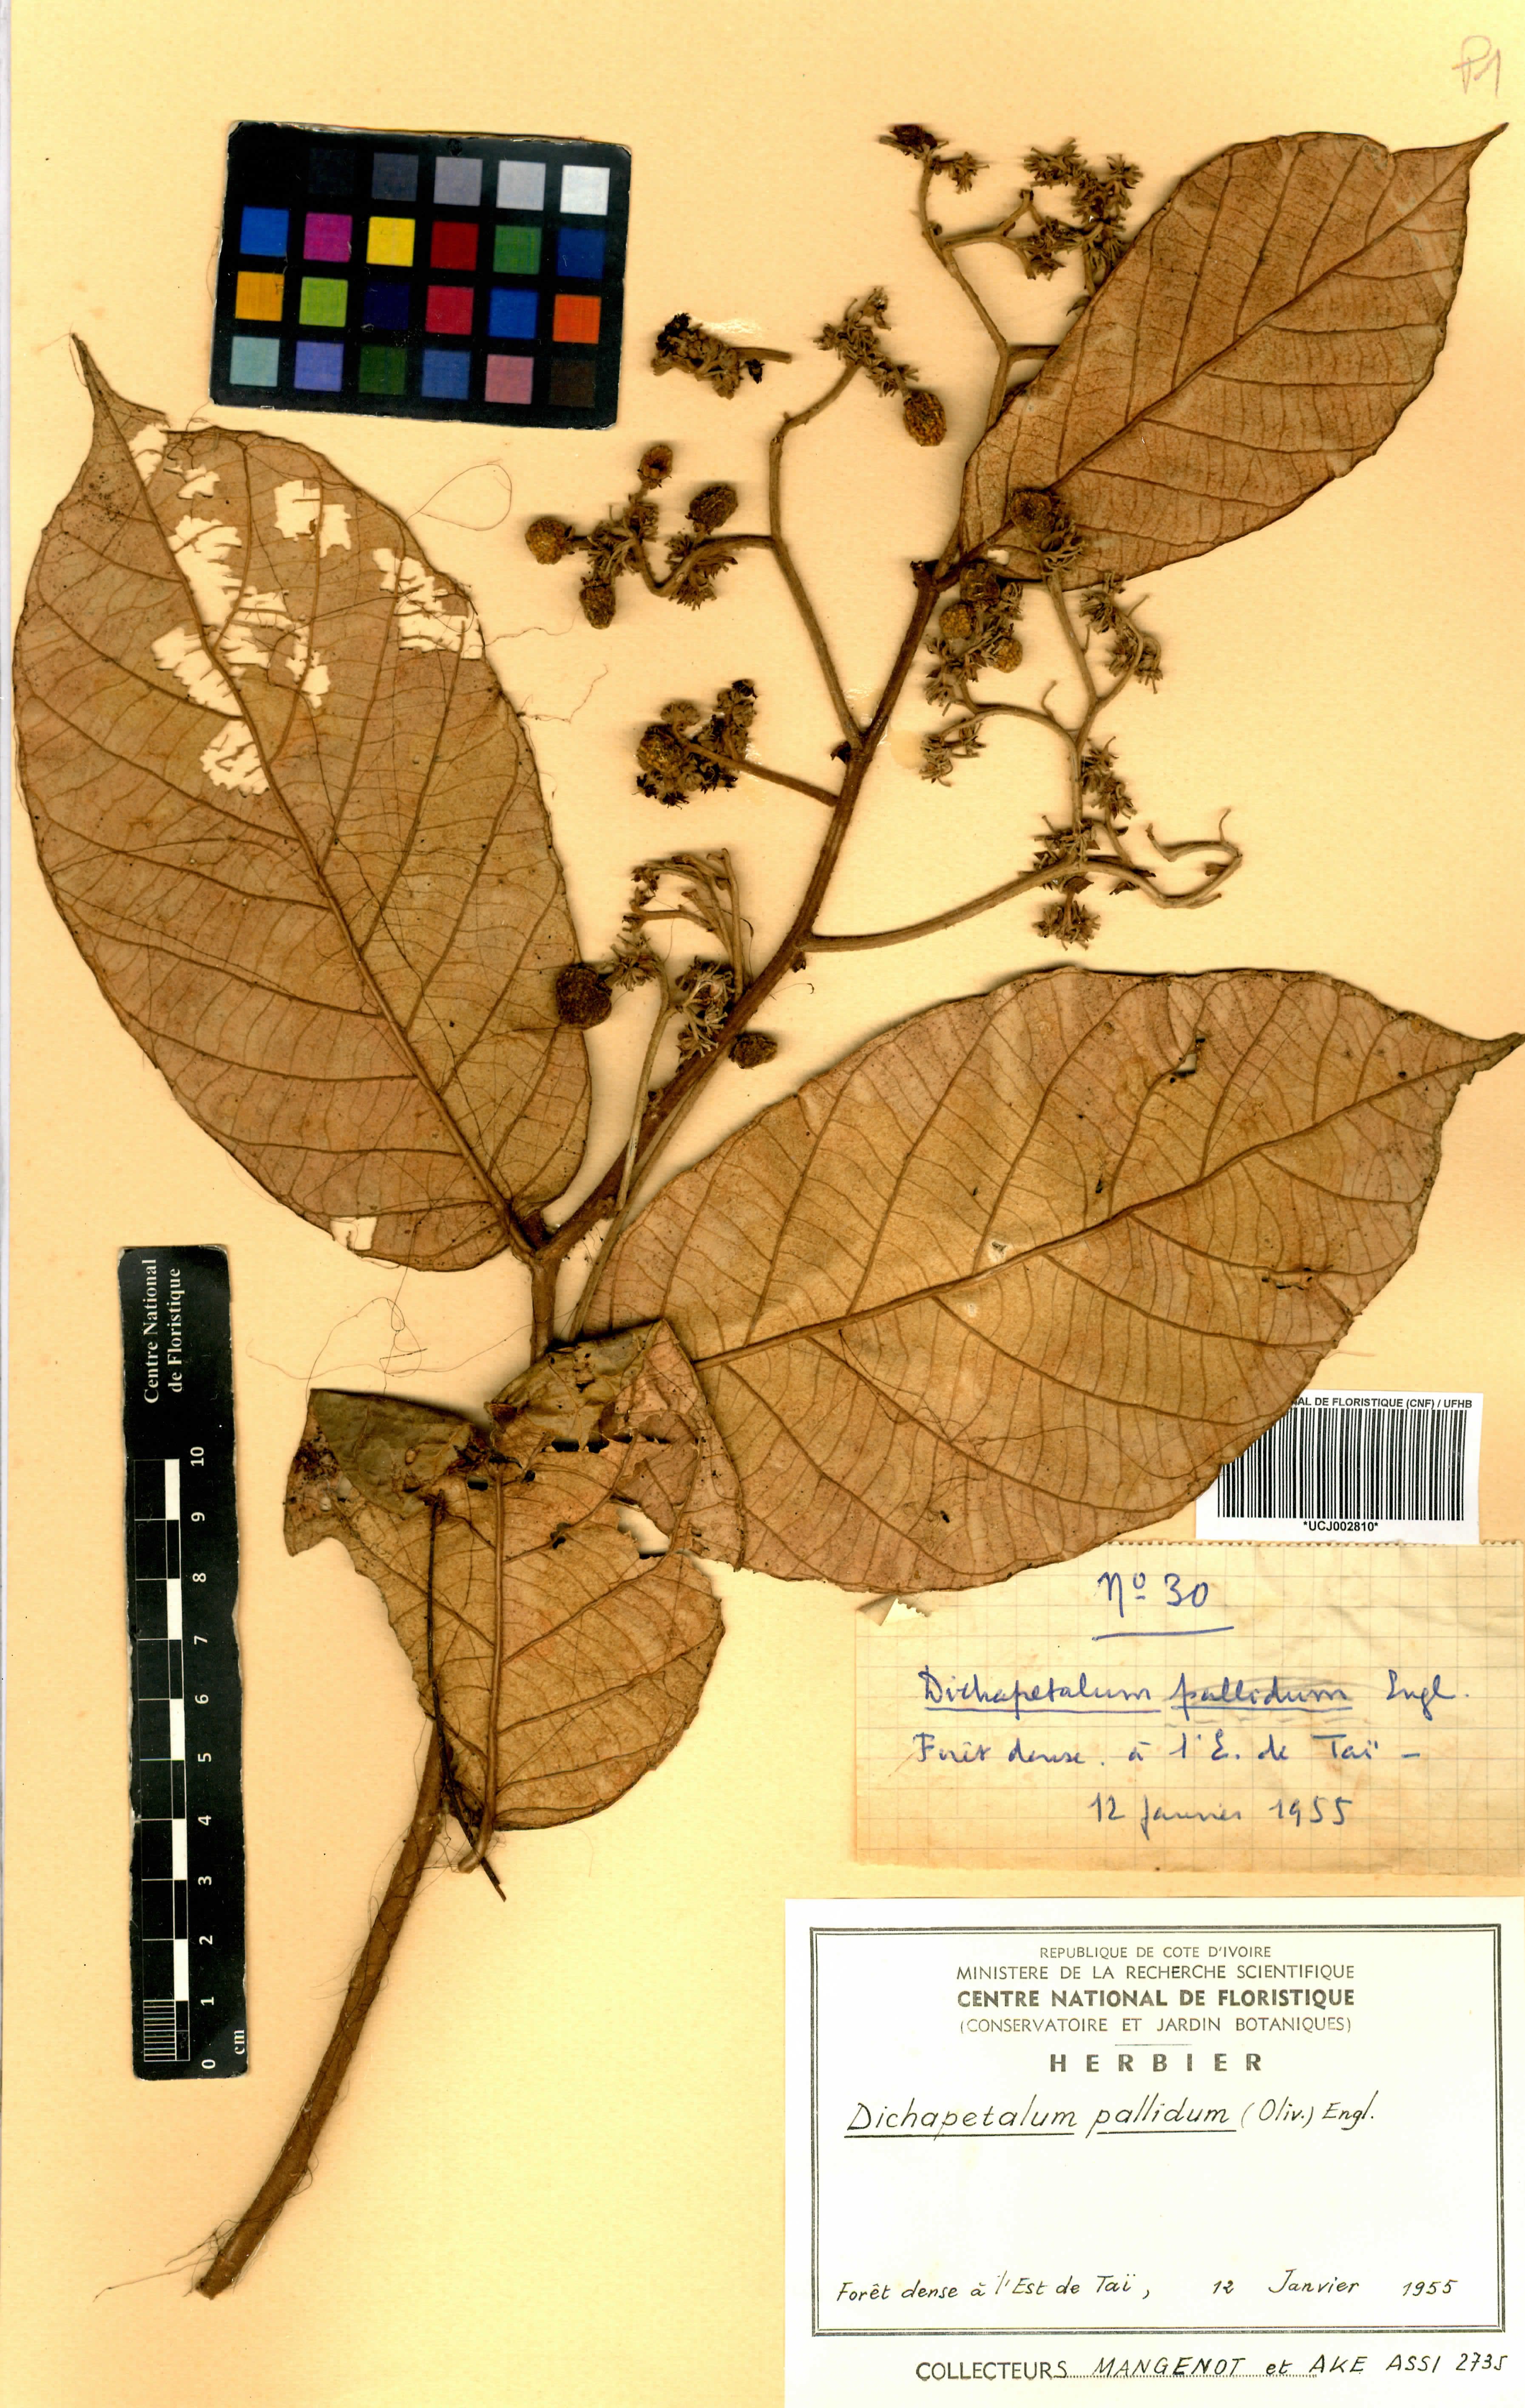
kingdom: Plantae
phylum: Tracheophyta
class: Magnoliopsida
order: Malpighiales
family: Dichapetalaceae
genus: Dichapetalum
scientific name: Dichapetalum pallidum
